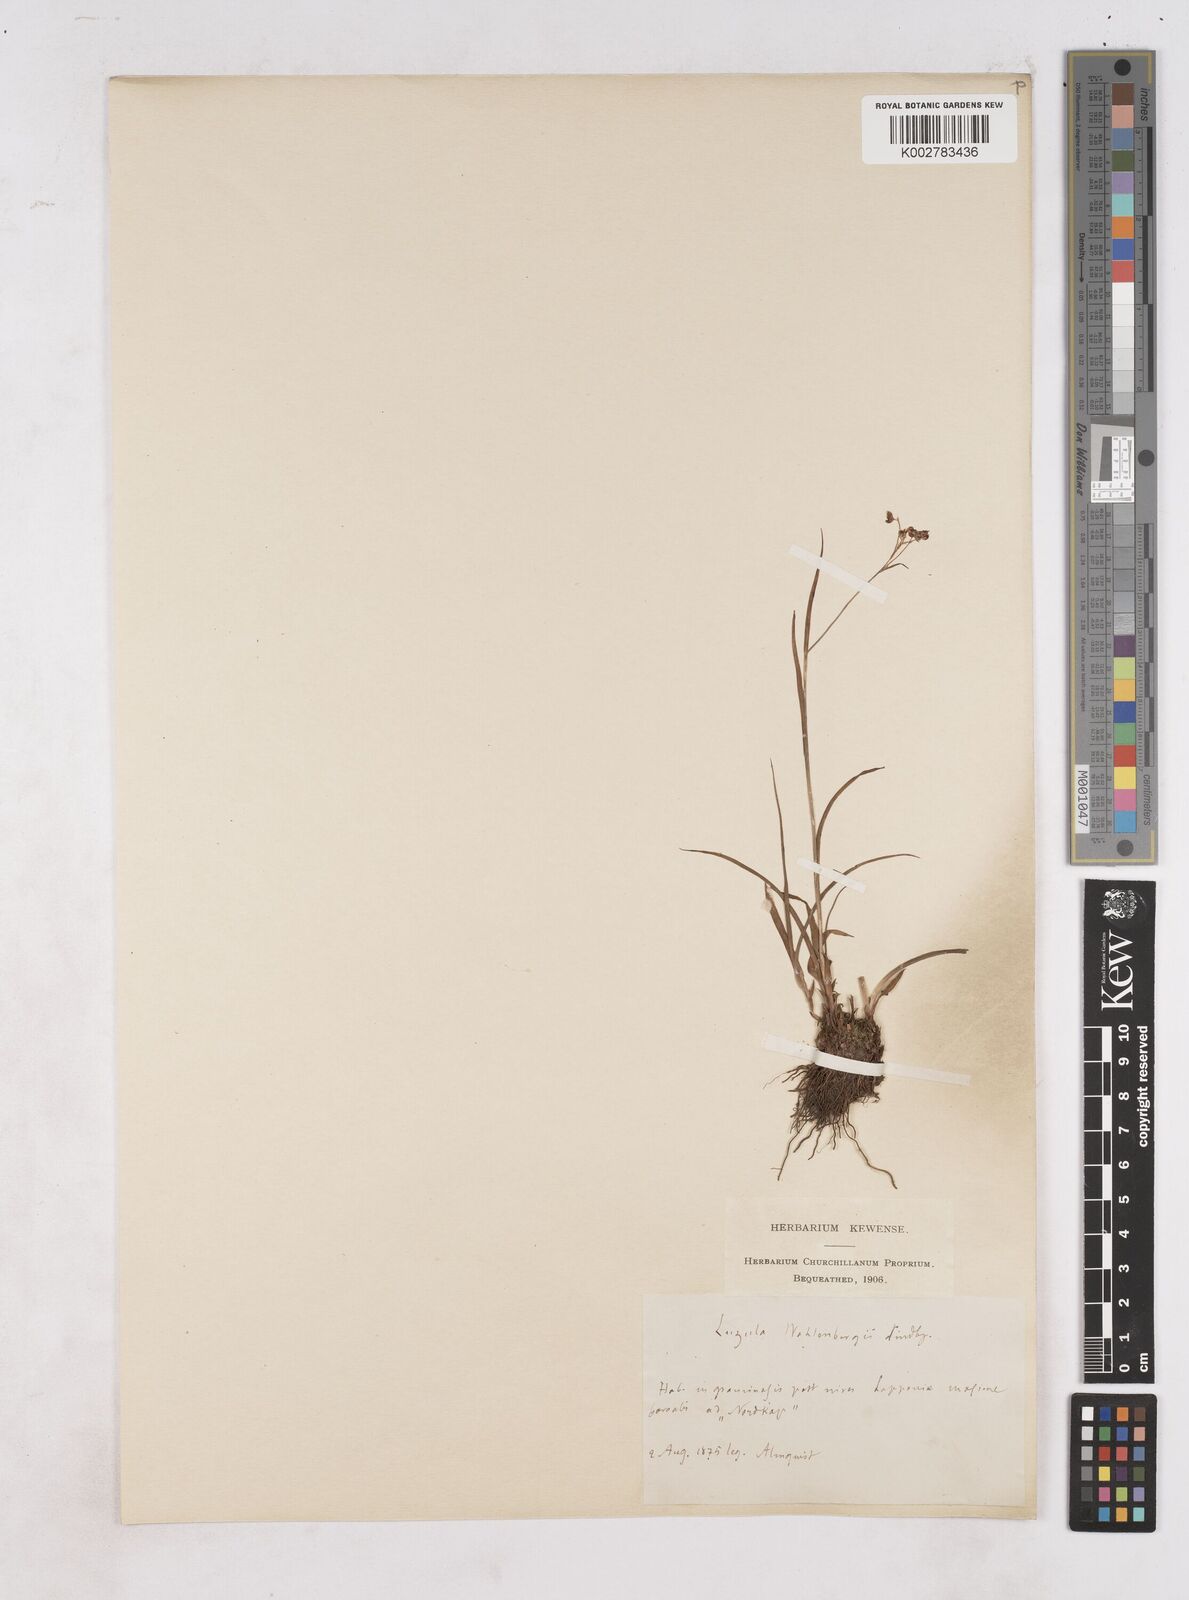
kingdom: Plantae
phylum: Tracheophyta
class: Liliopsida
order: Poales
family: Juncaceae
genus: Luzula
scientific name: Luzula wahlenbergii
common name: Wahlenberg's wood-rush
